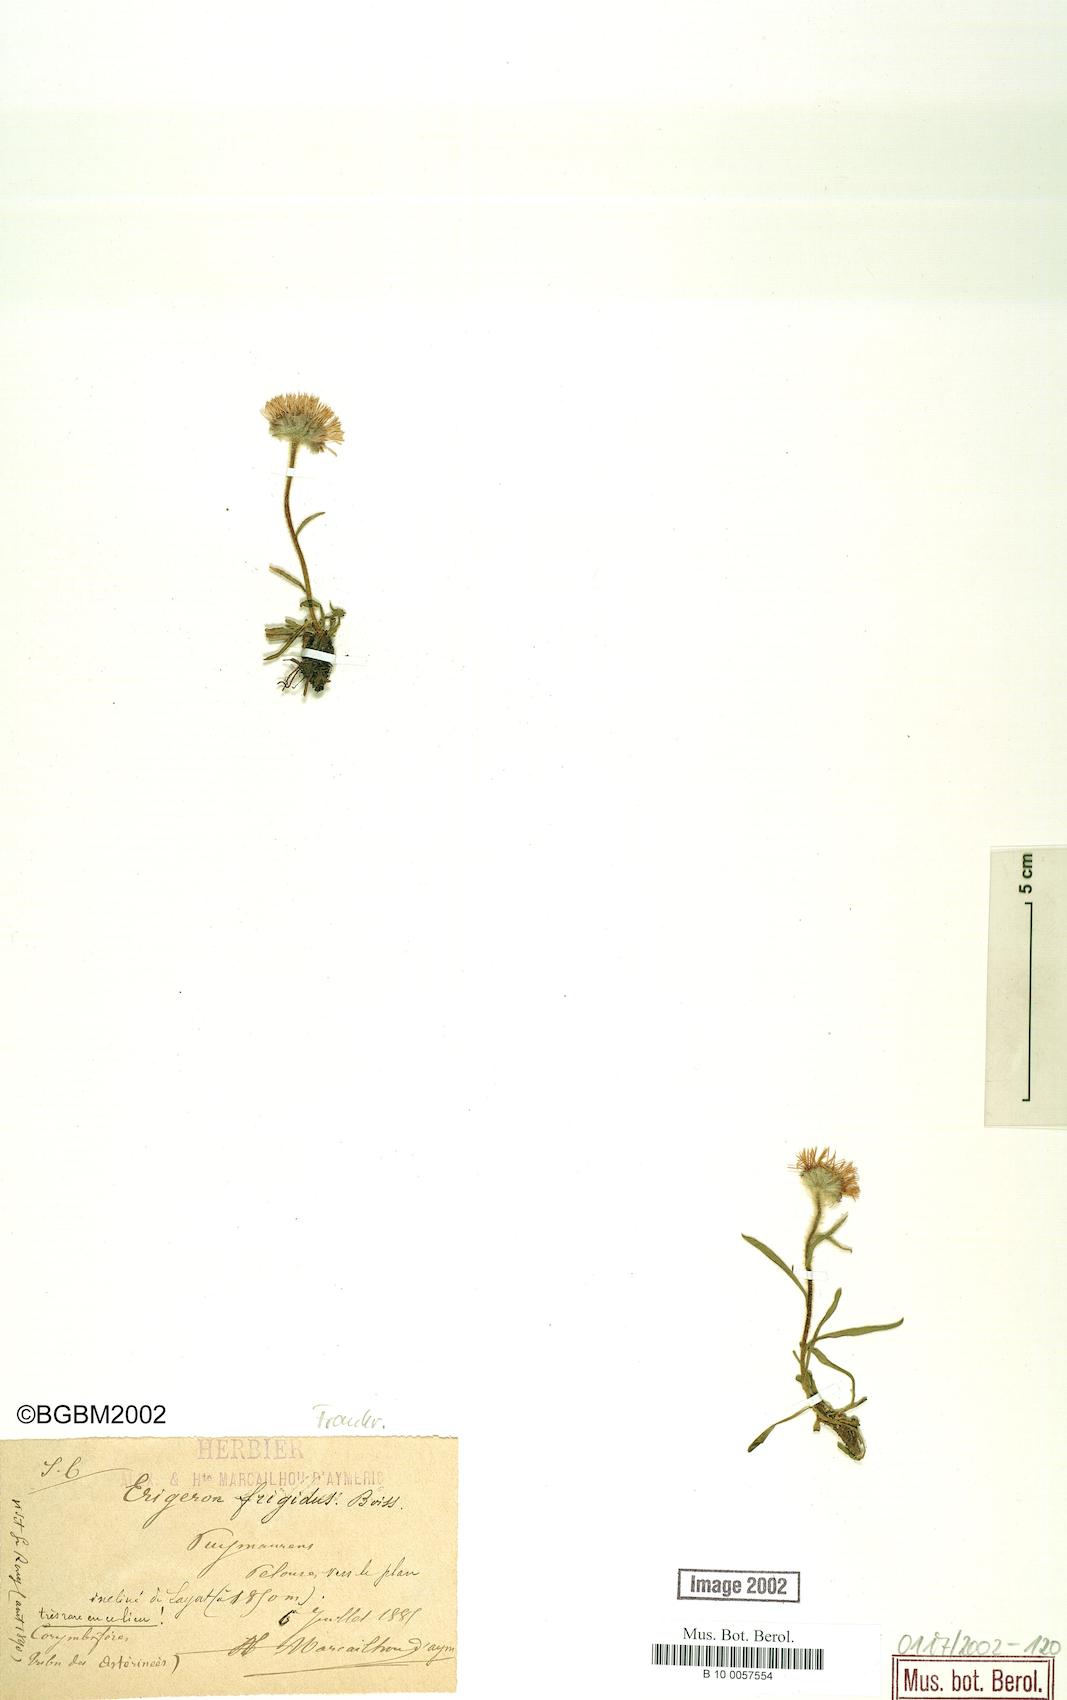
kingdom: Plantae
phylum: Tracheophyta
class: Magnoliopsida
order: Asterales
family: Asteraceae
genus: Erigeron
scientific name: Erigeron aragonensis
